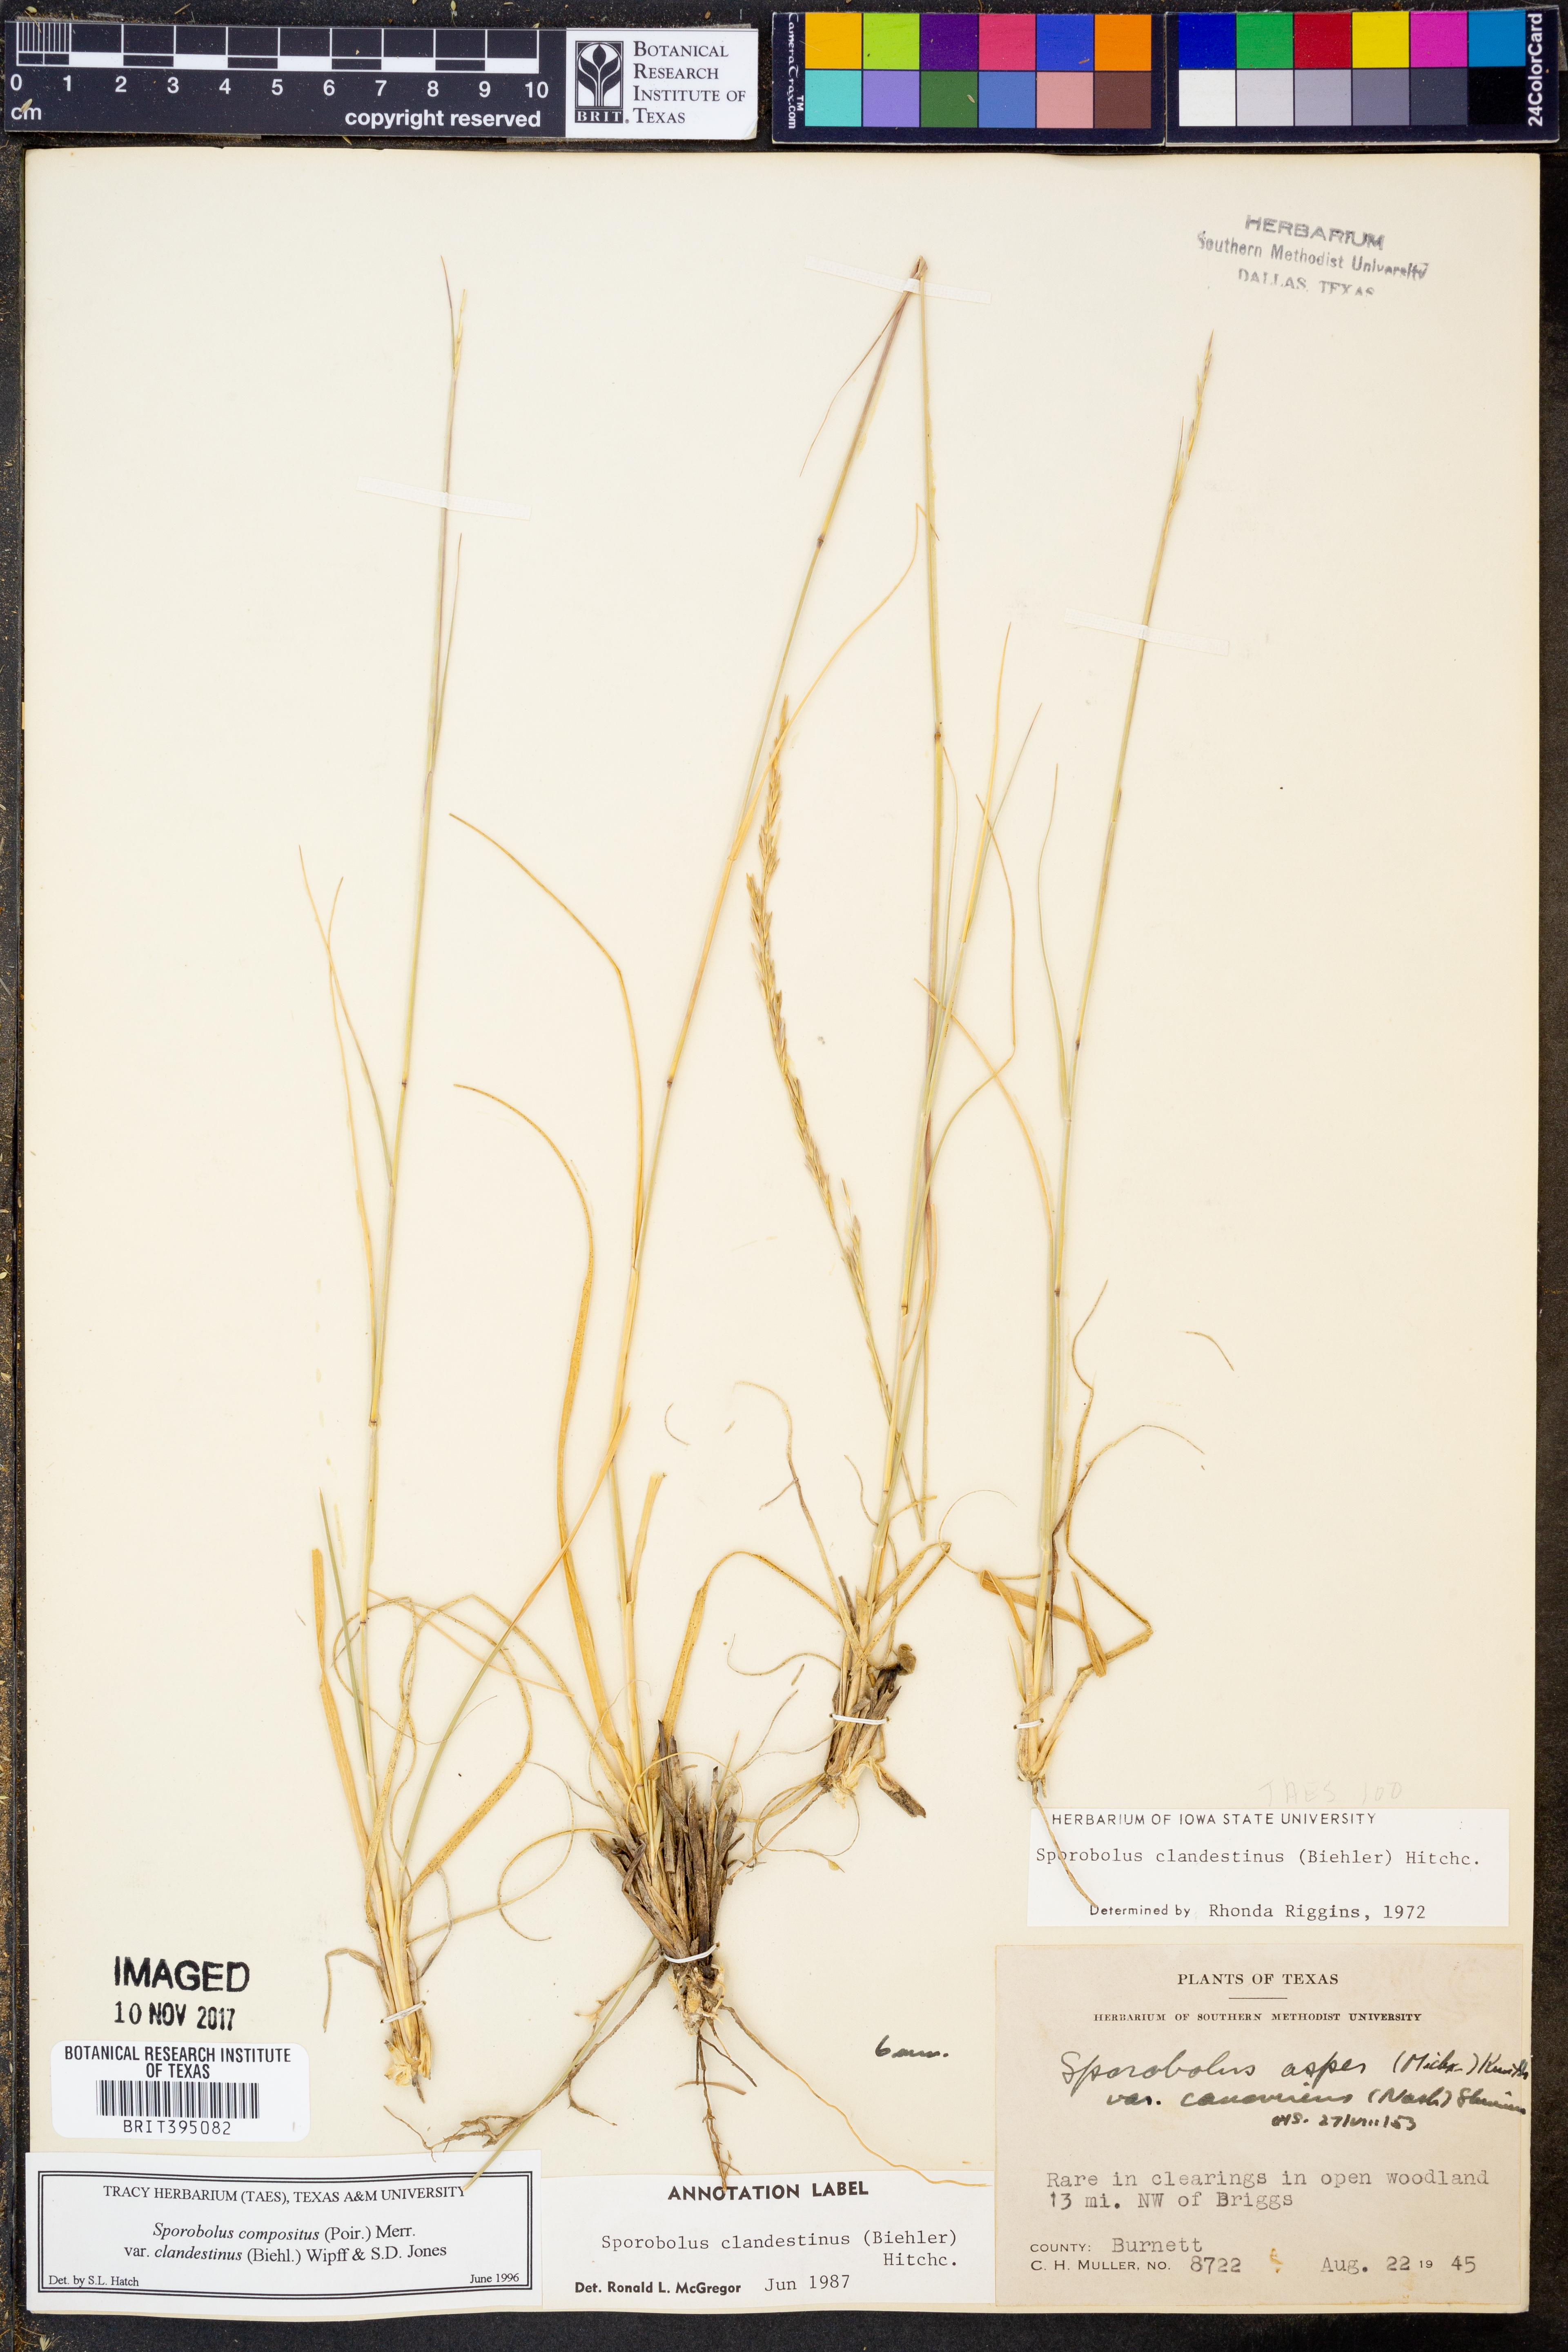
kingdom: Plantae
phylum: Tracheophyta
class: Liliopsida
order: Poales
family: Poaceae
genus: Sporobolus
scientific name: Sporobolus clandestinus
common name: Hidden dropseed
